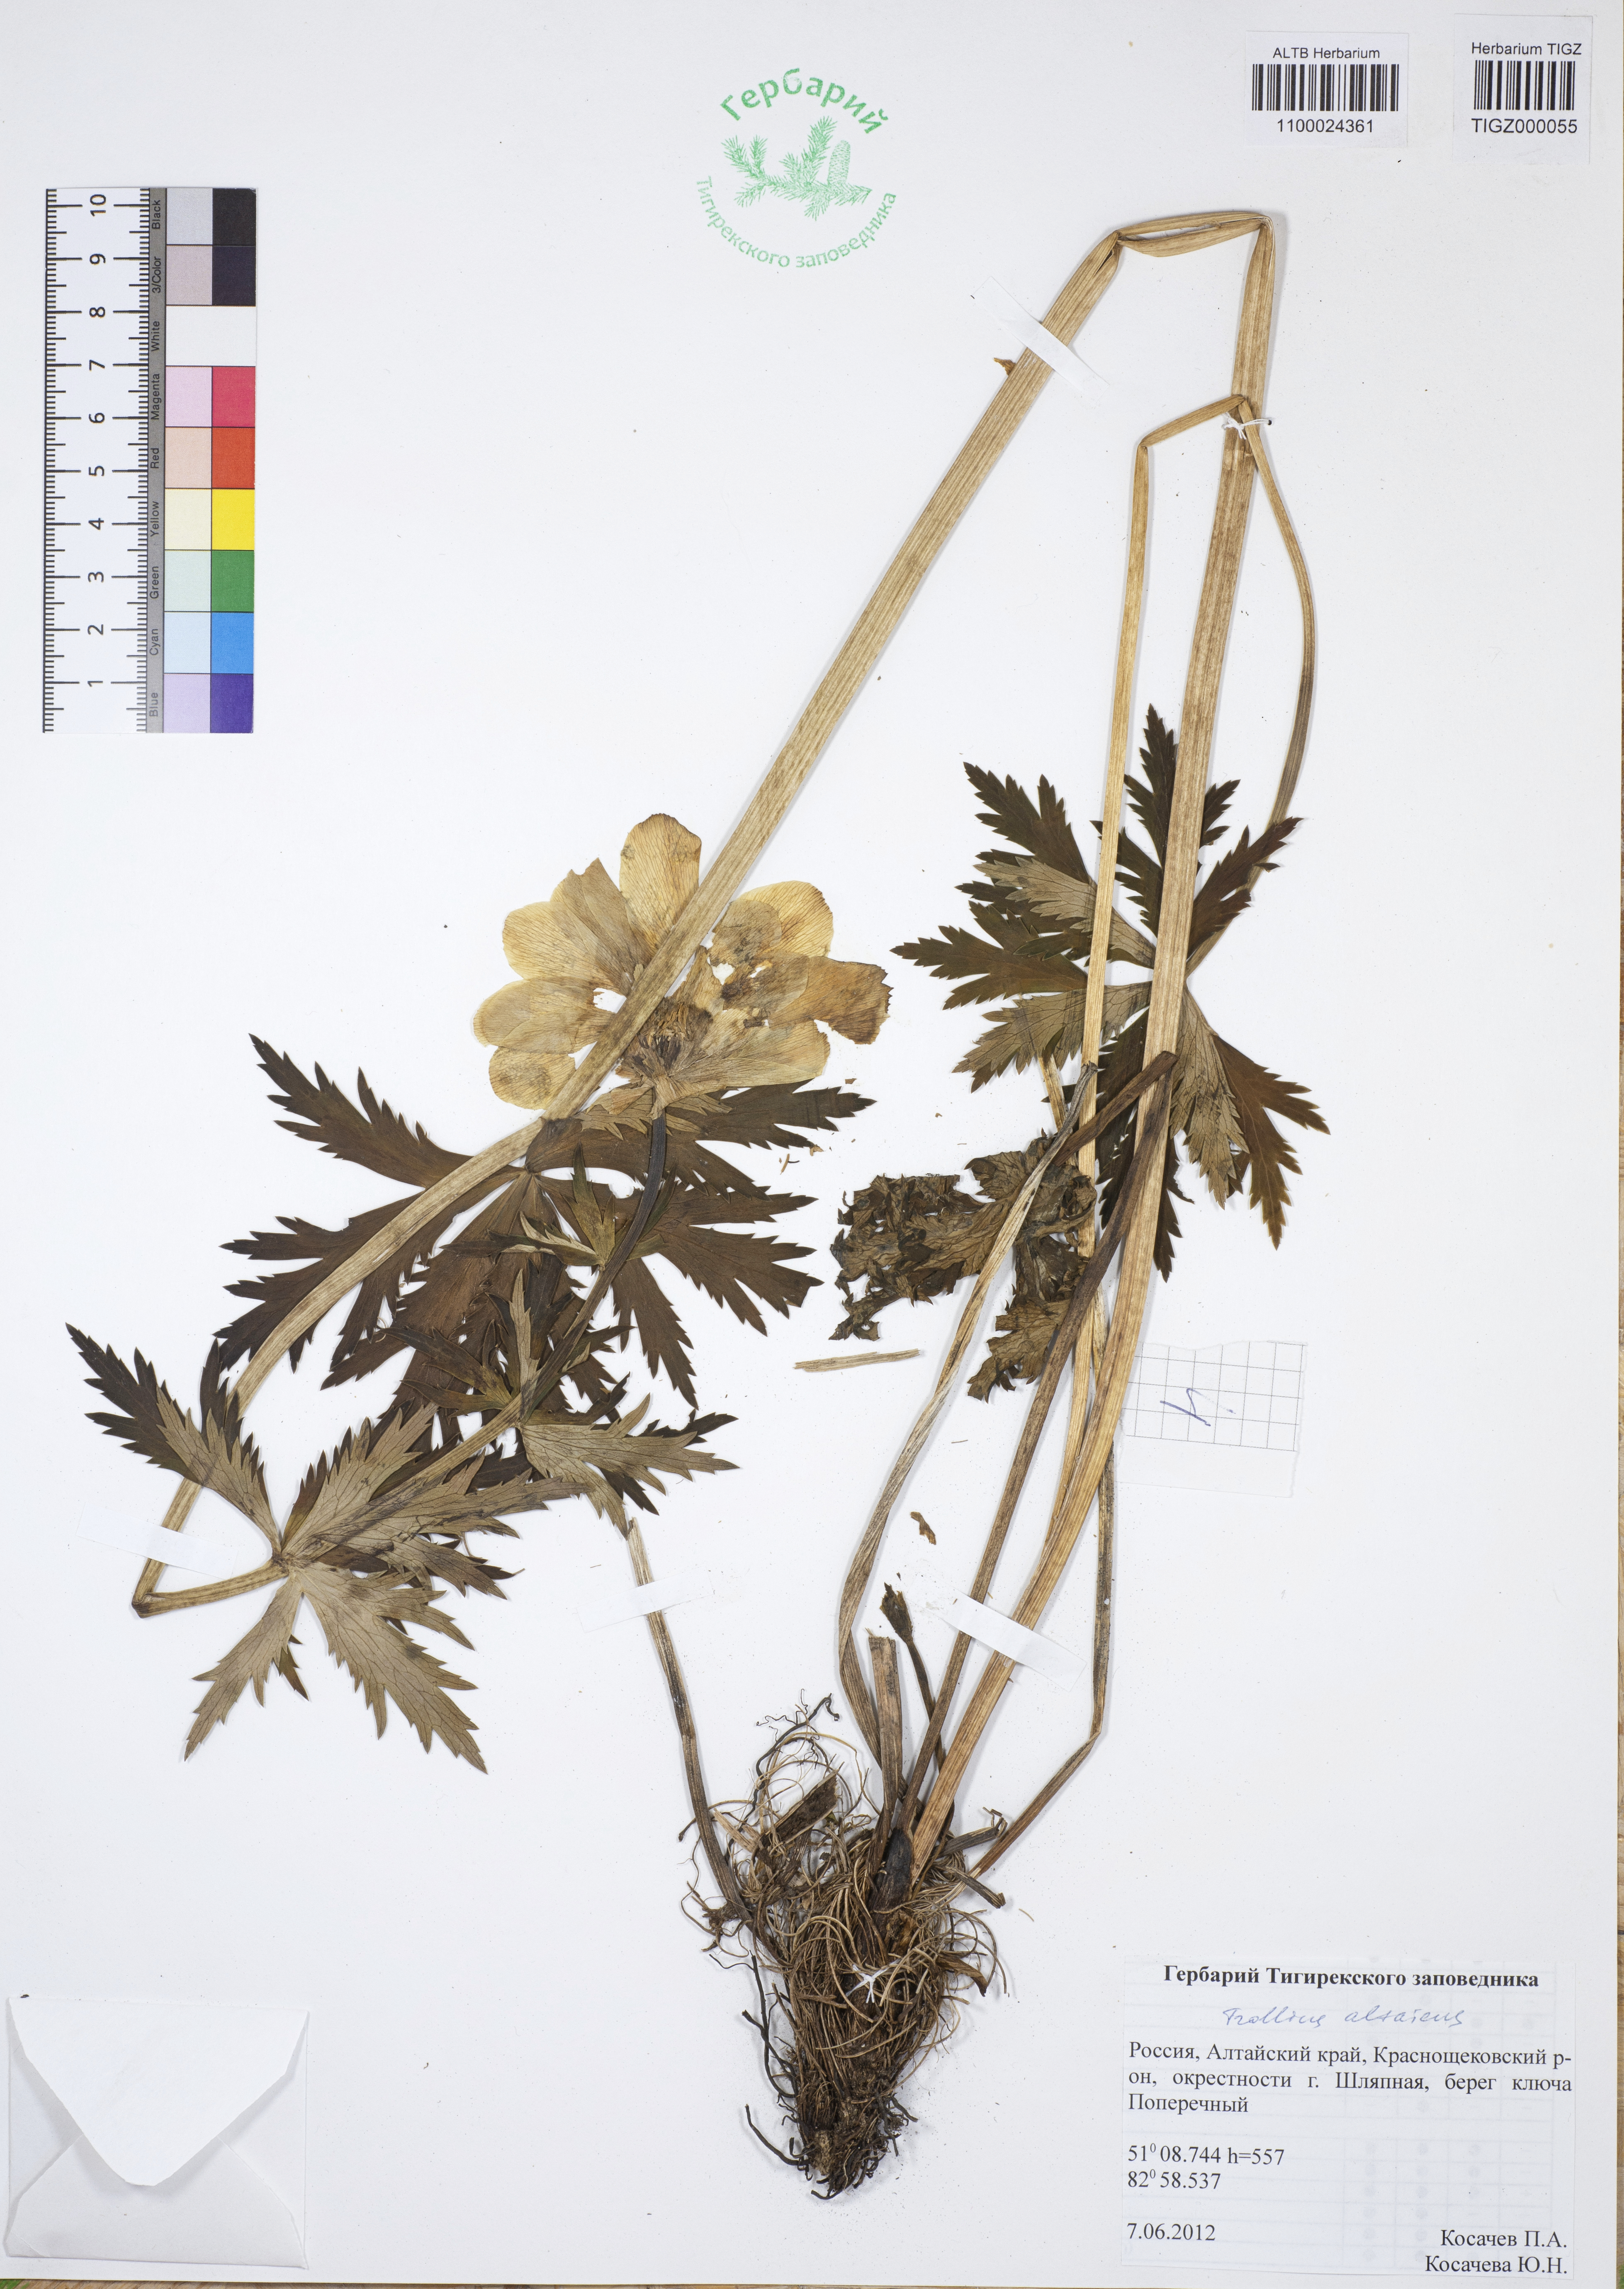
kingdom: Plantae
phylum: Tracheophyta
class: Magnoliopsida
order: Ranunculales
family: Ranunculaceae
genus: Trollius
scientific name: Trollius asiaticus
